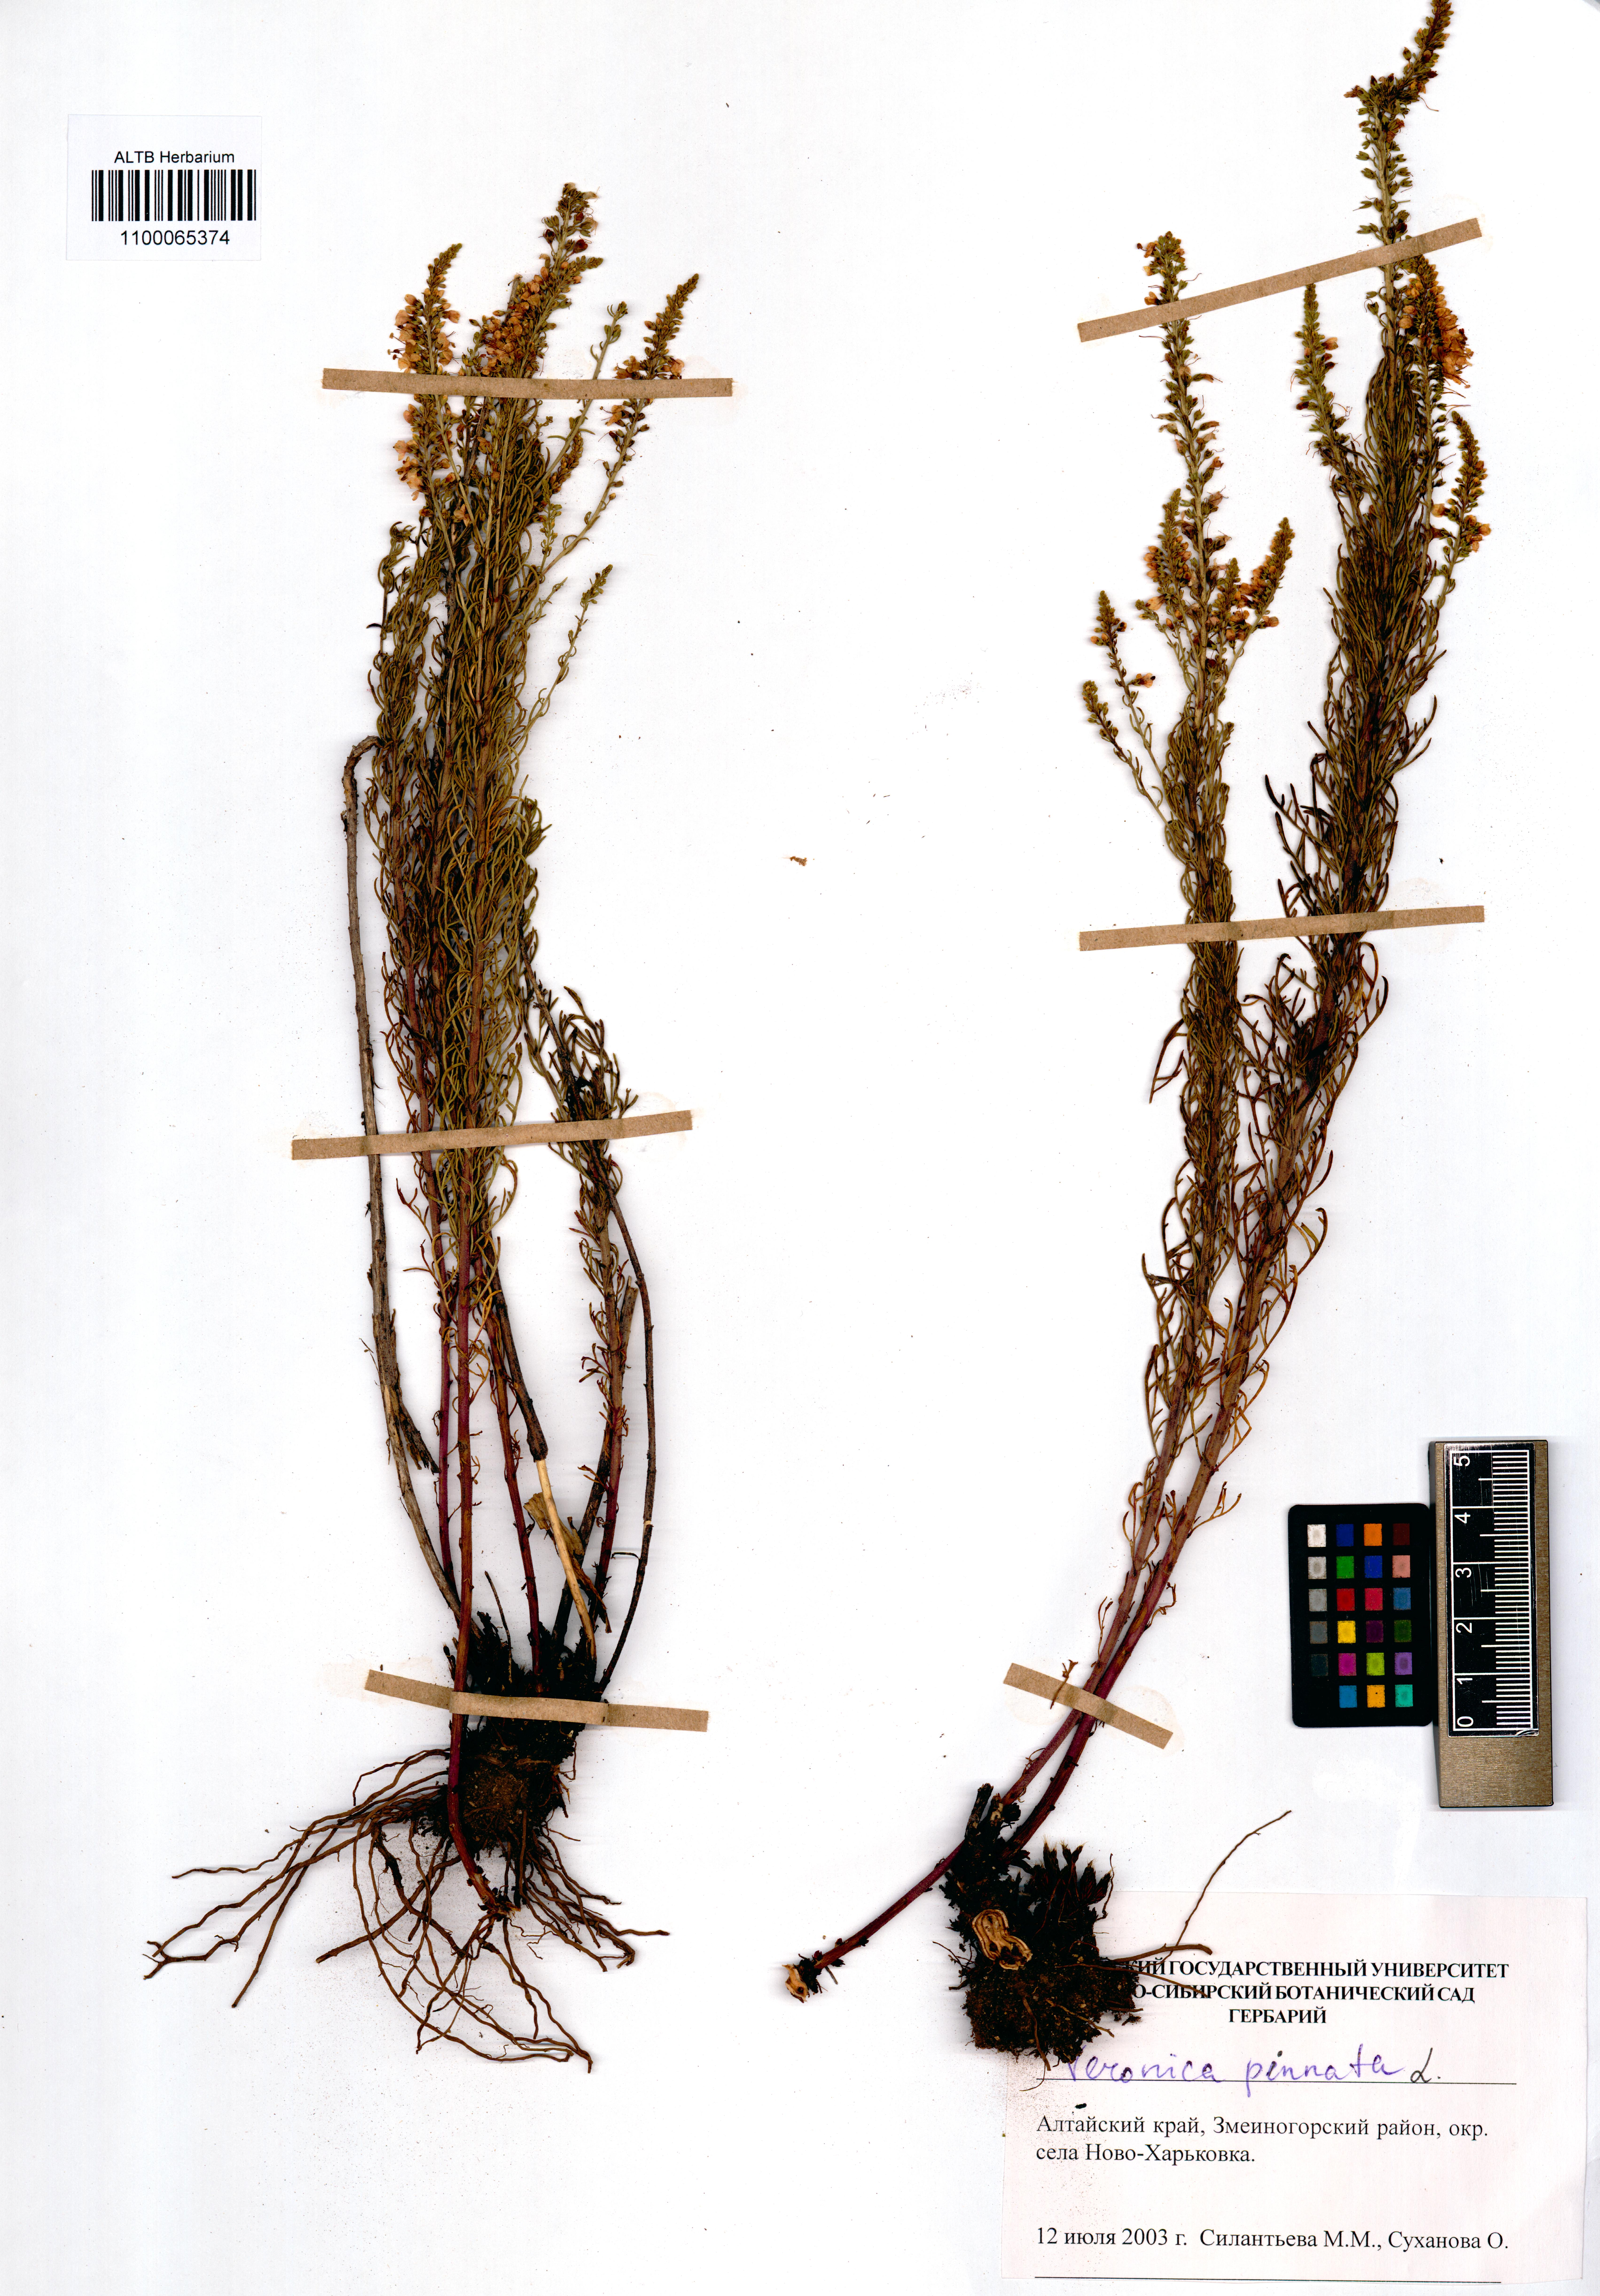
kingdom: Plantae
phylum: Tracheophyta
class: Magnoliopsida
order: Lamiales
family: Plantaginaceae
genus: Veronica
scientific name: Veronica pinnata
